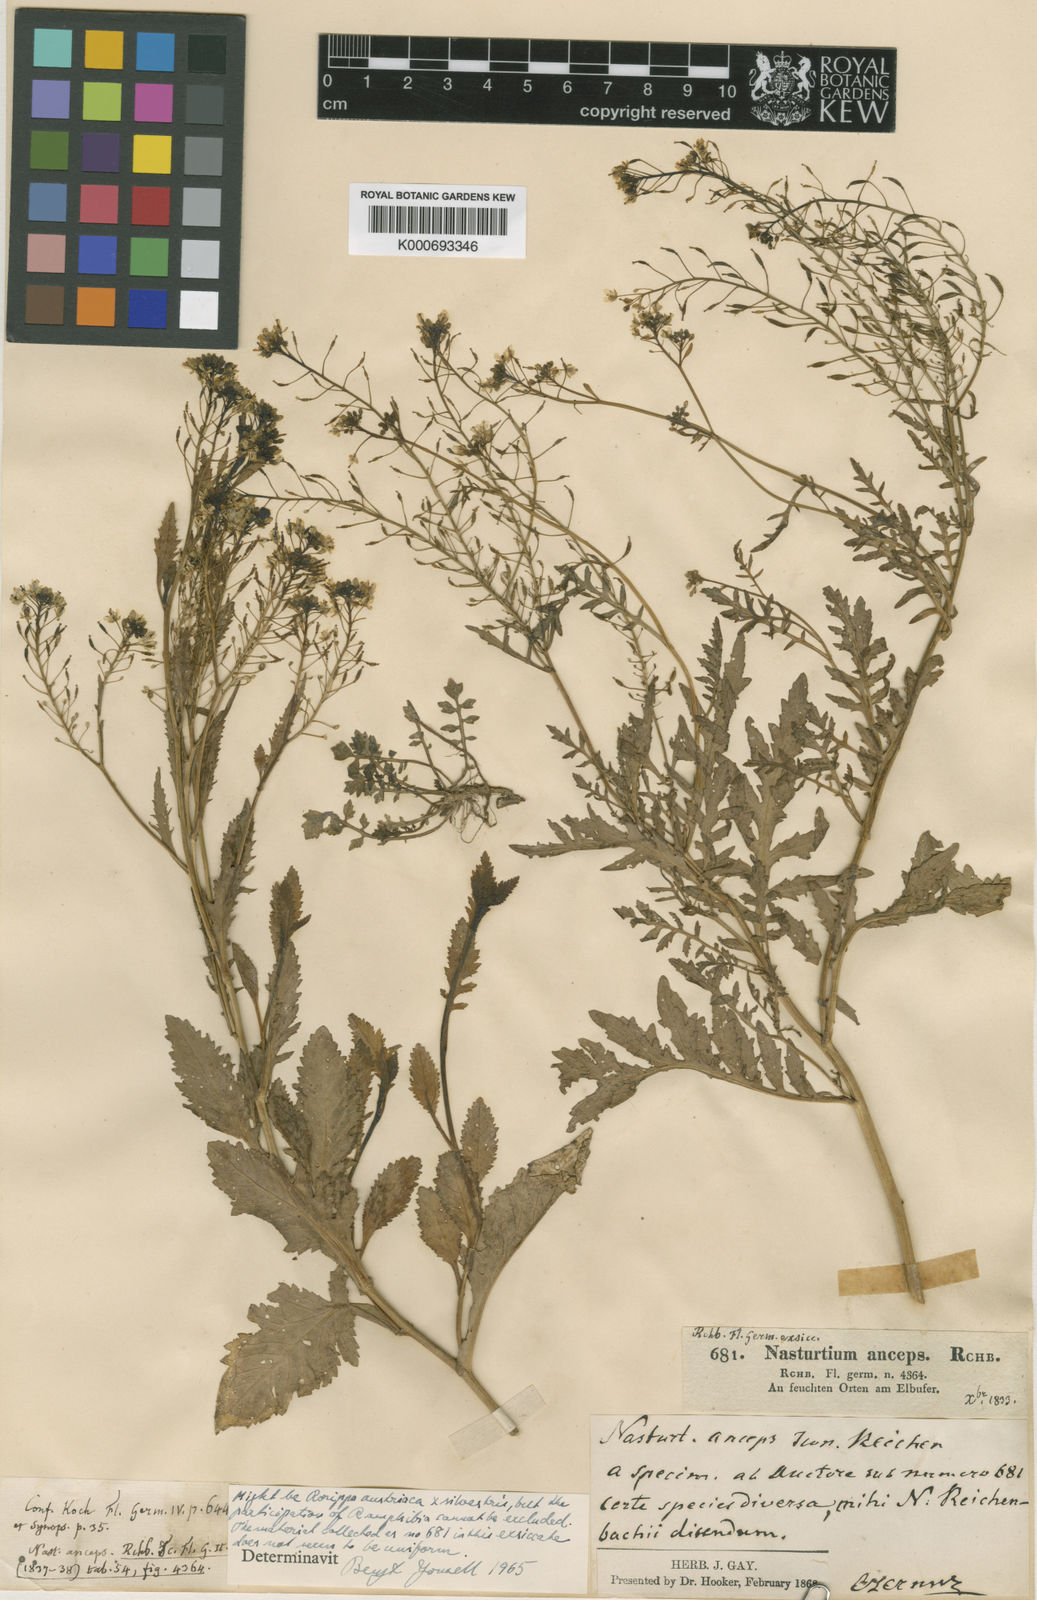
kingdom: Plantae
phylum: Tracheophyta
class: Magnoliopsida
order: Brassicales
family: Brassicaceae
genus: Rorippa
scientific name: Rorippa anceps
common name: Rorippa
